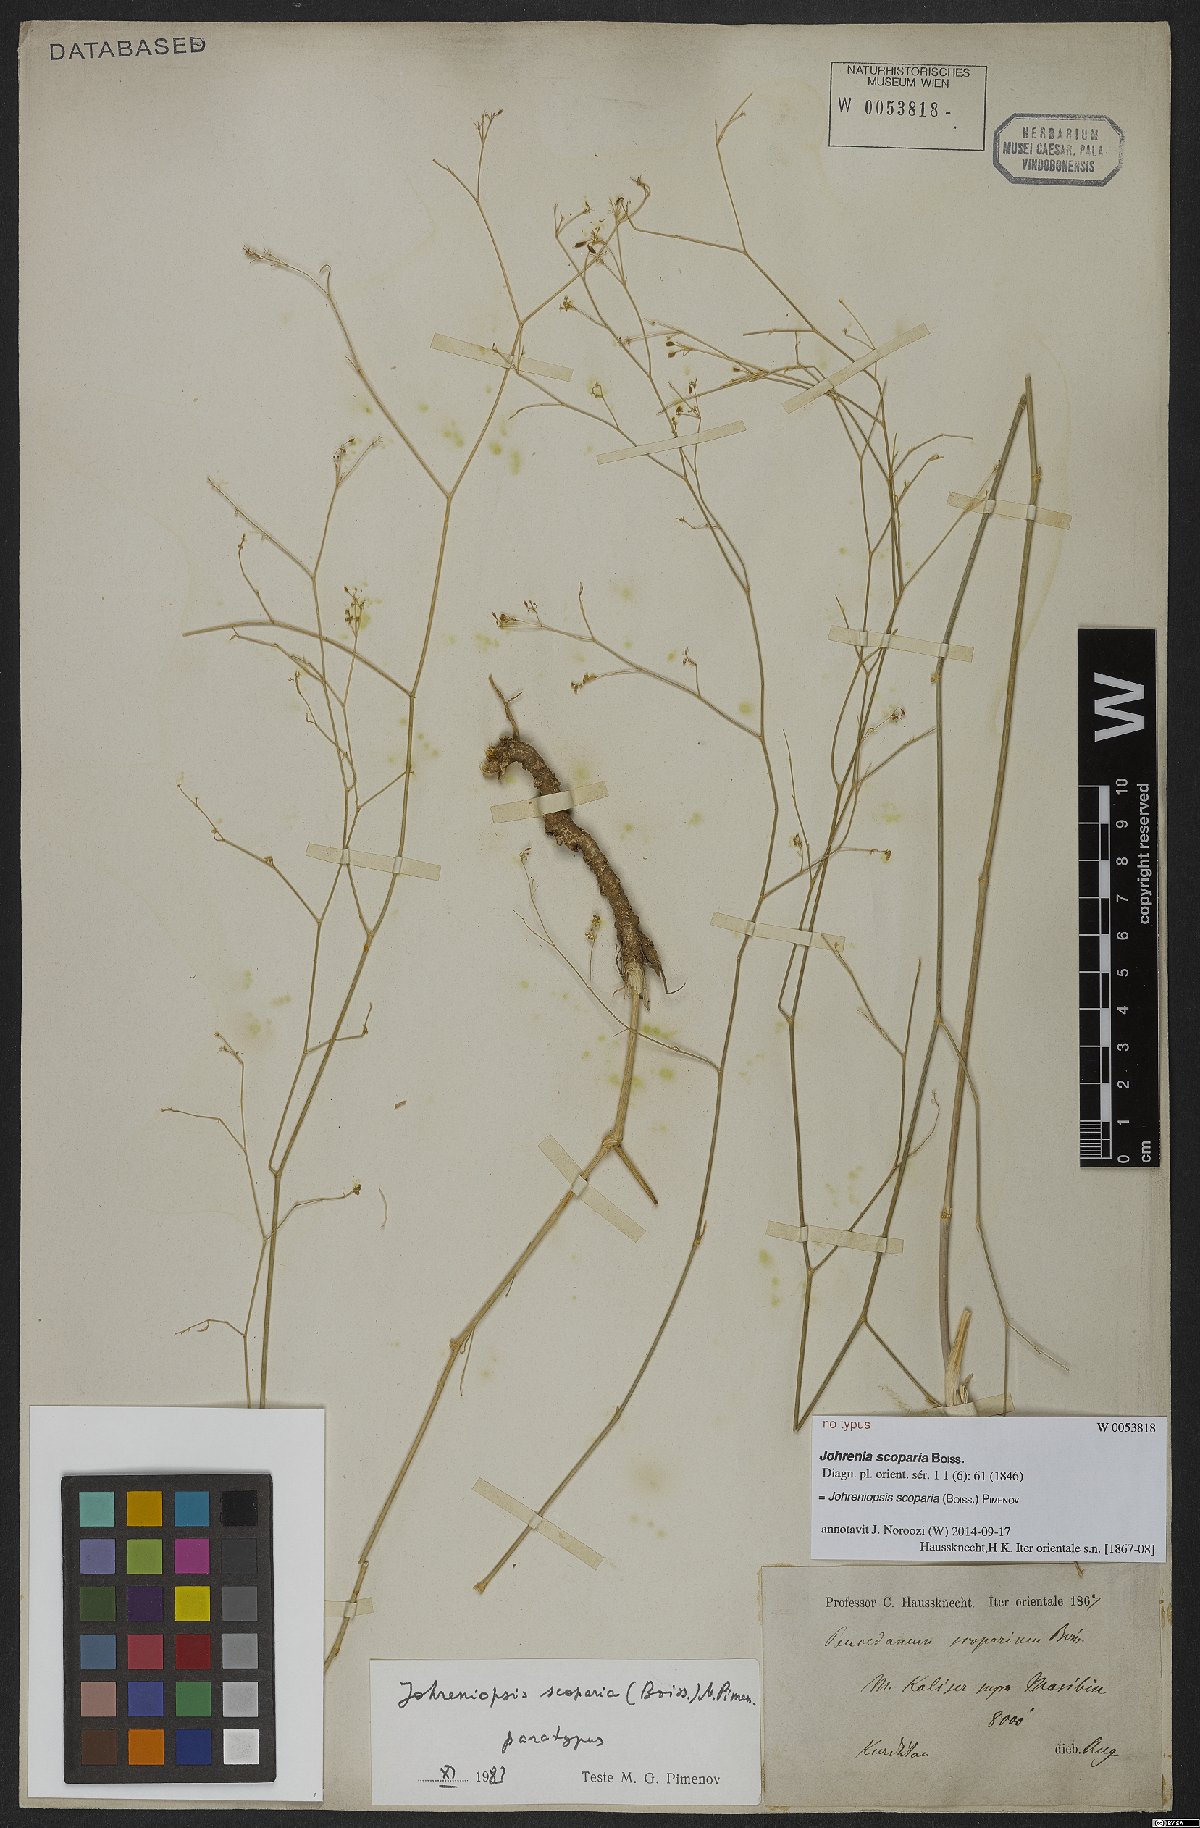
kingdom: Plantae
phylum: Tracheophyta
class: Magnoliopsida
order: Apiales
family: Apiaceae
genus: Dichoropetalum
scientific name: Dichoropetalum scoparium
